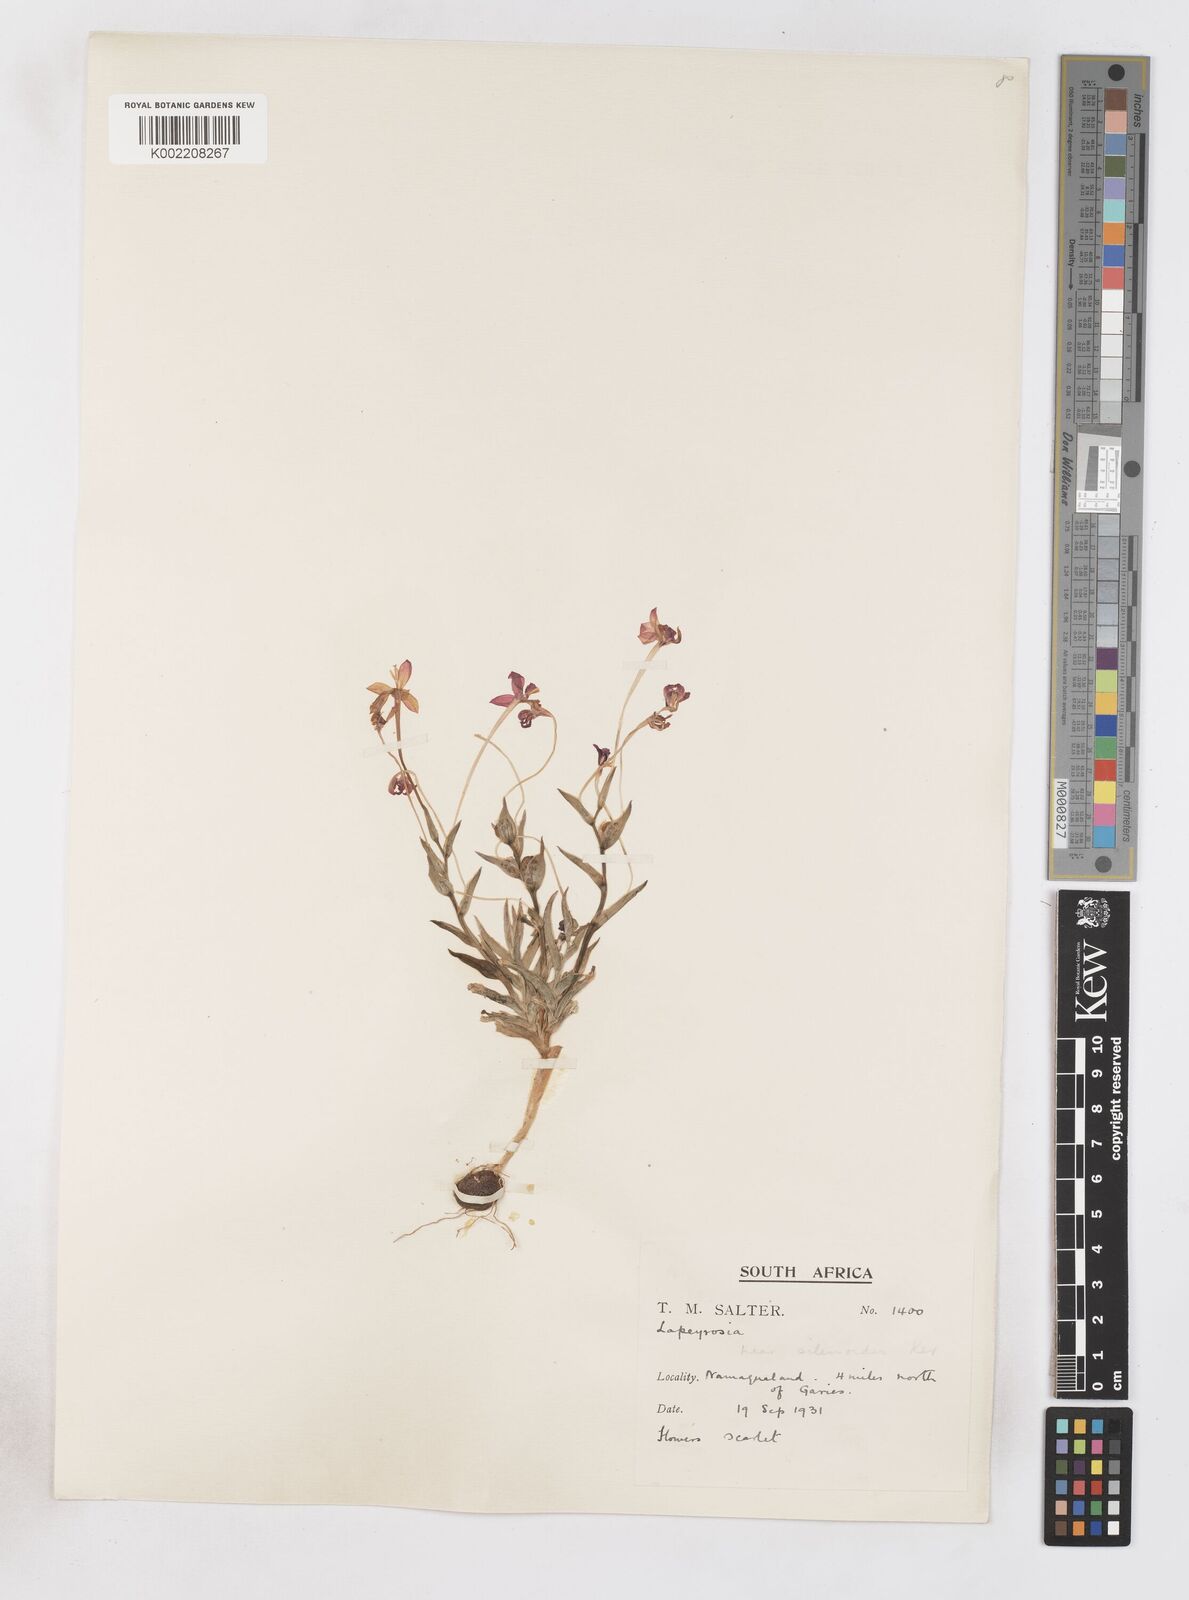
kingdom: Plantae
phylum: Tracheophyta
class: Liliopsida
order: Asparagales
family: Iridaceae
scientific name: Iridaceae
